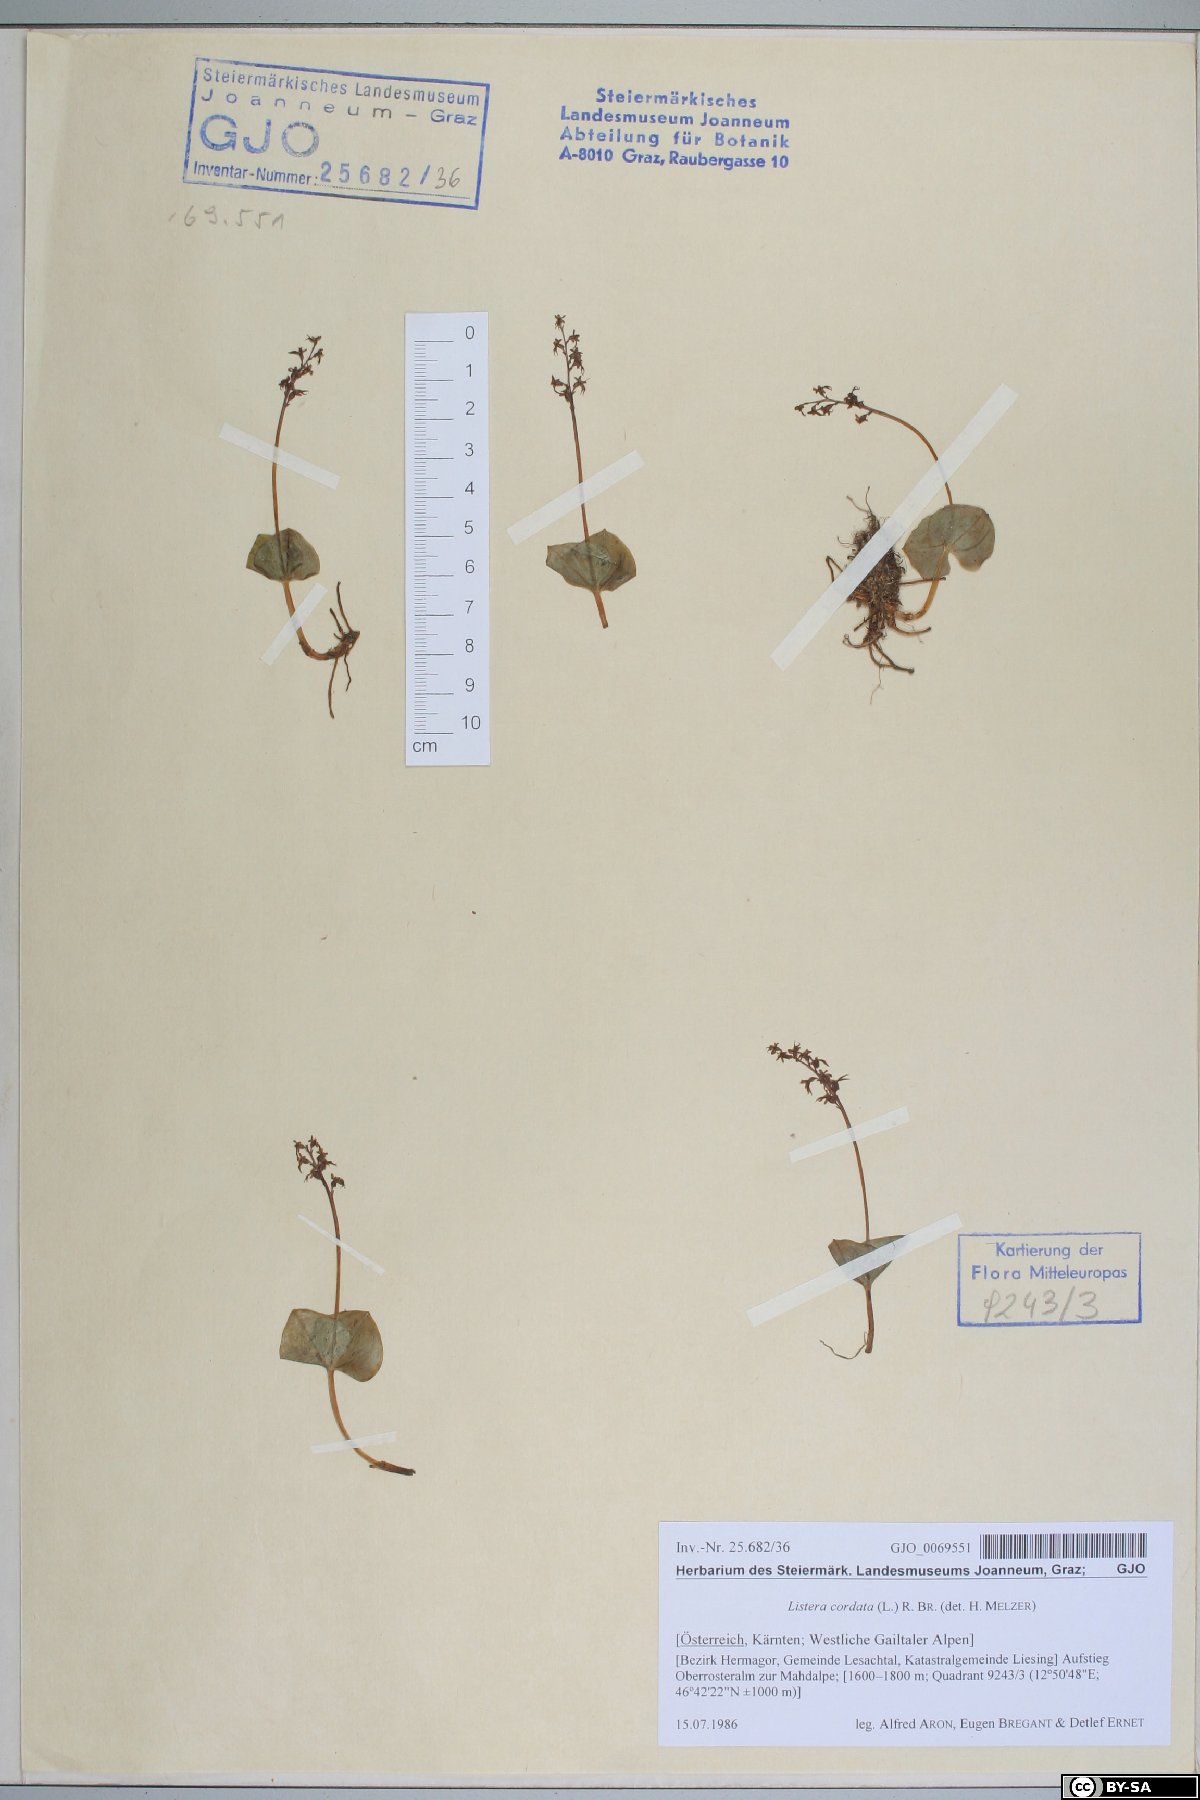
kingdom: Plantae
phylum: Tracheophyta
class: Liliopsida
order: Asparagales
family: Orchidaceae
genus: Neottia
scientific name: Neottia cordata
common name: Lesser twayblade
